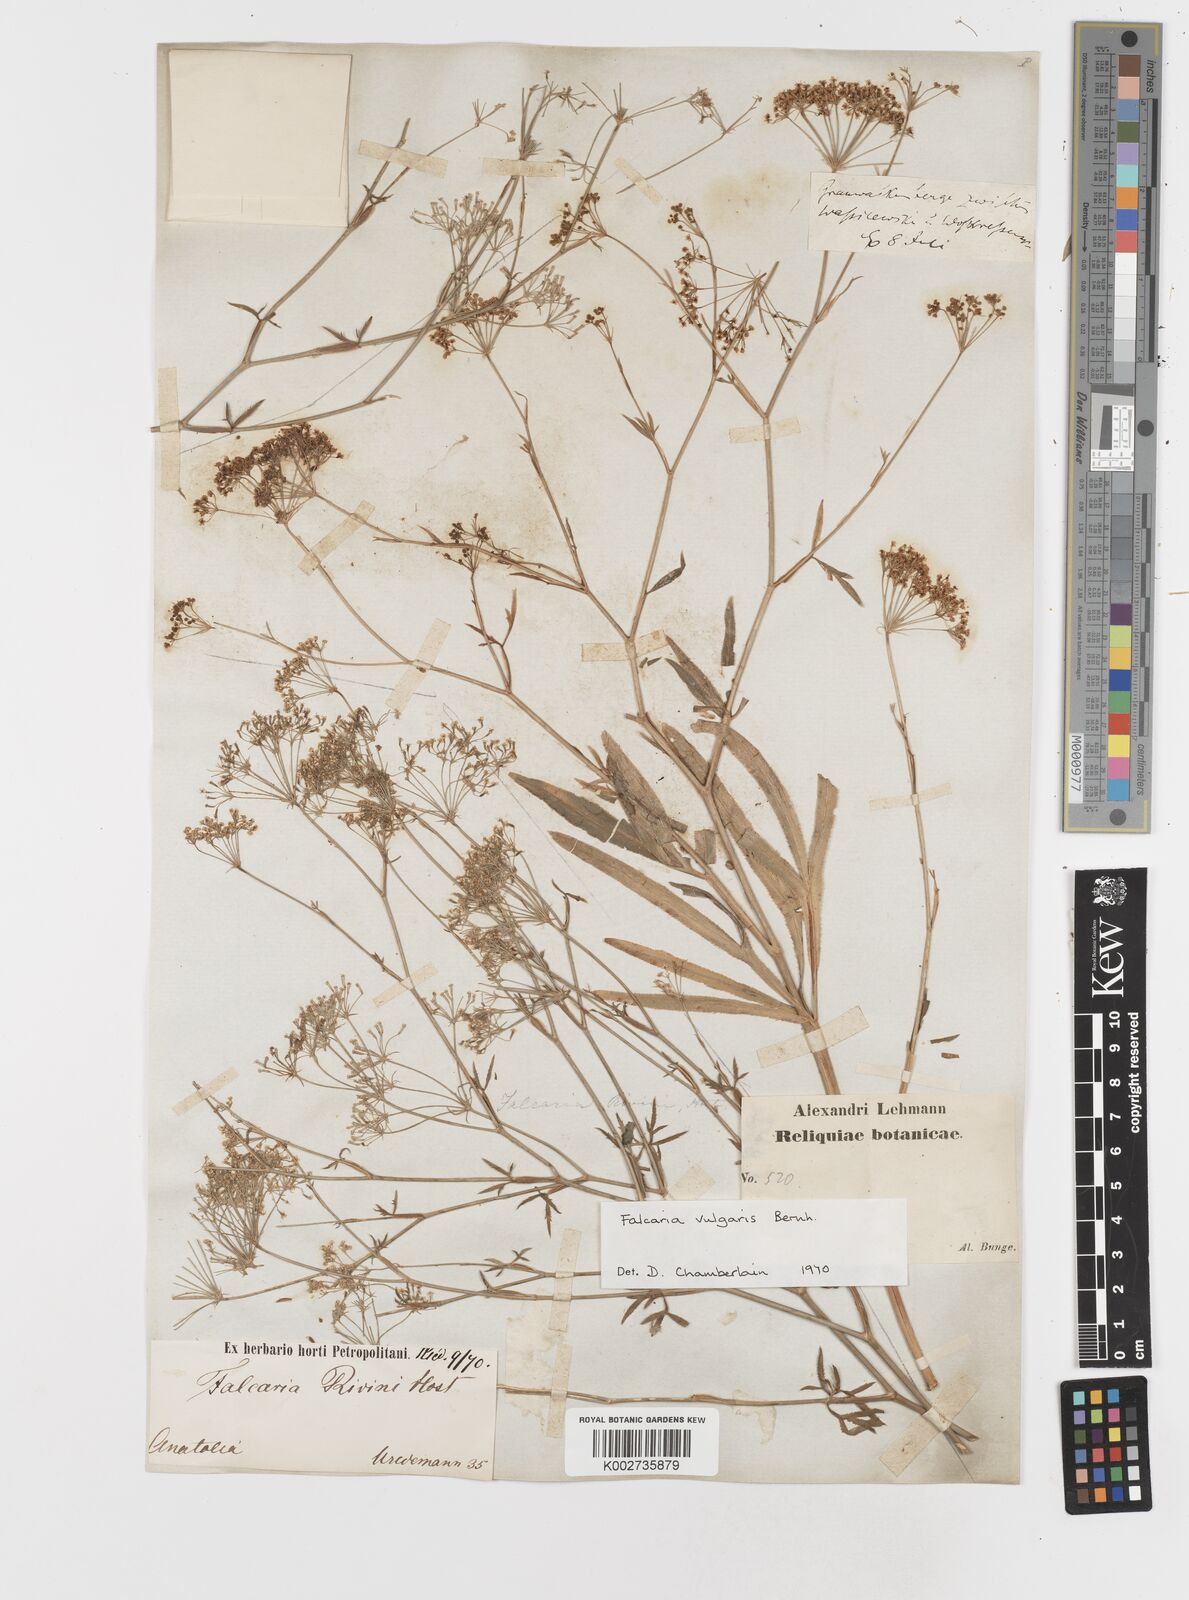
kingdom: Plantae
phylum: Tracheophyta
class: Magnoliopsida
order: Apiales
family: Apiaceae
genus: Falcaria
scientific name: Falcaria vulgaris
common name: Longleaf
